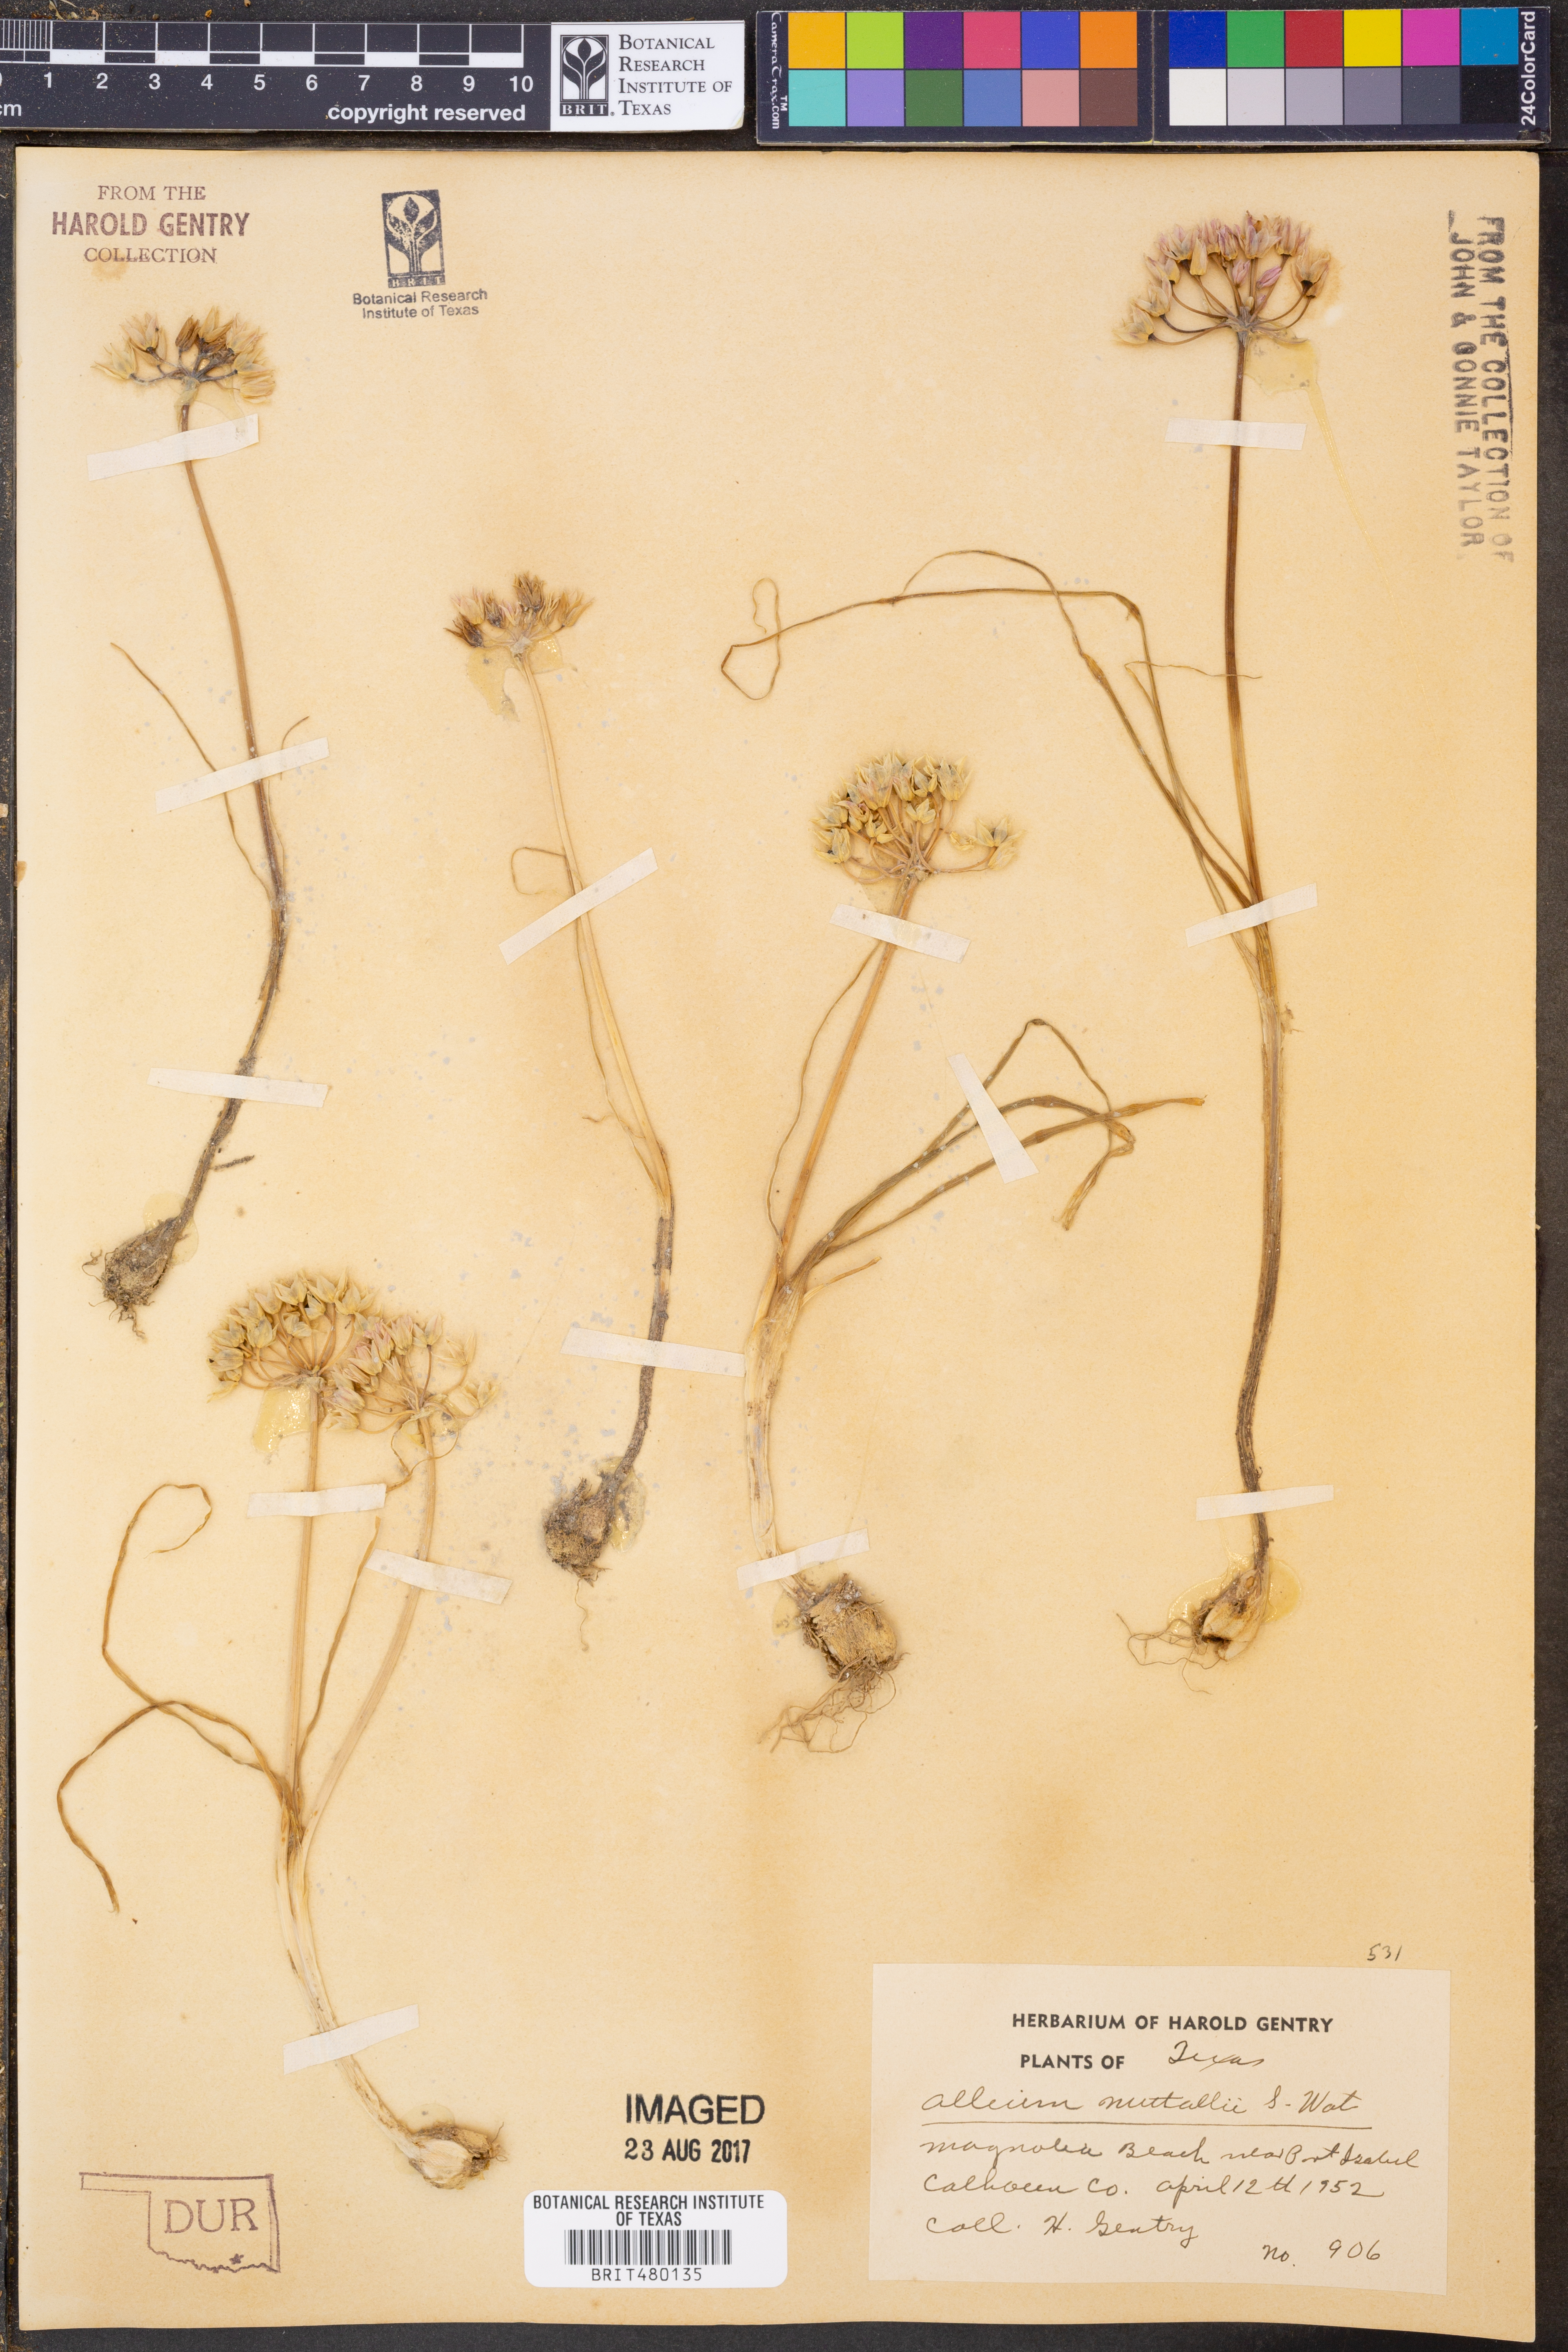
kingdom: Plantae
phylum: Tracheophyta
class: Liliopsida
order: Asparagales
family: Amaryllidaceae
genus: Allium
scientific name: Allium drummondii
